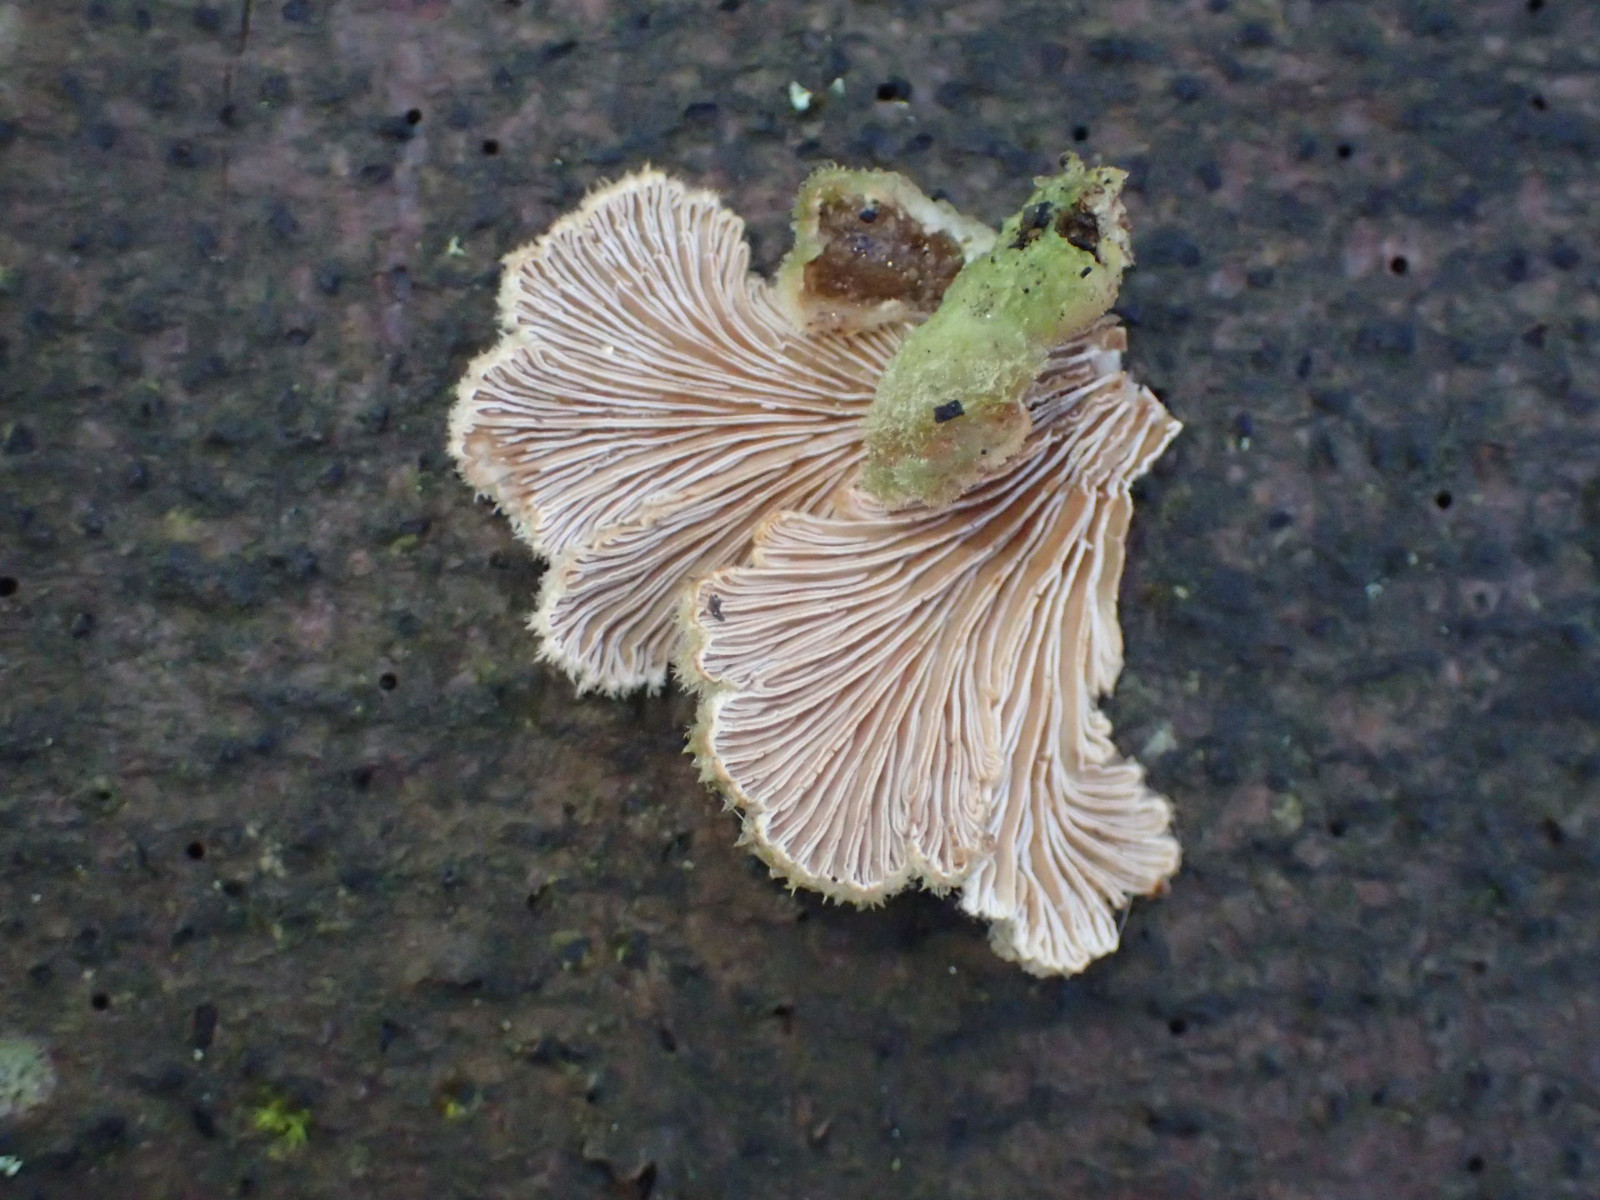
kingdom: Fungi
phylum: Basidiomycota
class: Agaricomycetes
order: Agaricales
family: Schizophyllaceae
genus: Schizophyllum
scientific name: Schizophyllum commune
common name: kløvblad
